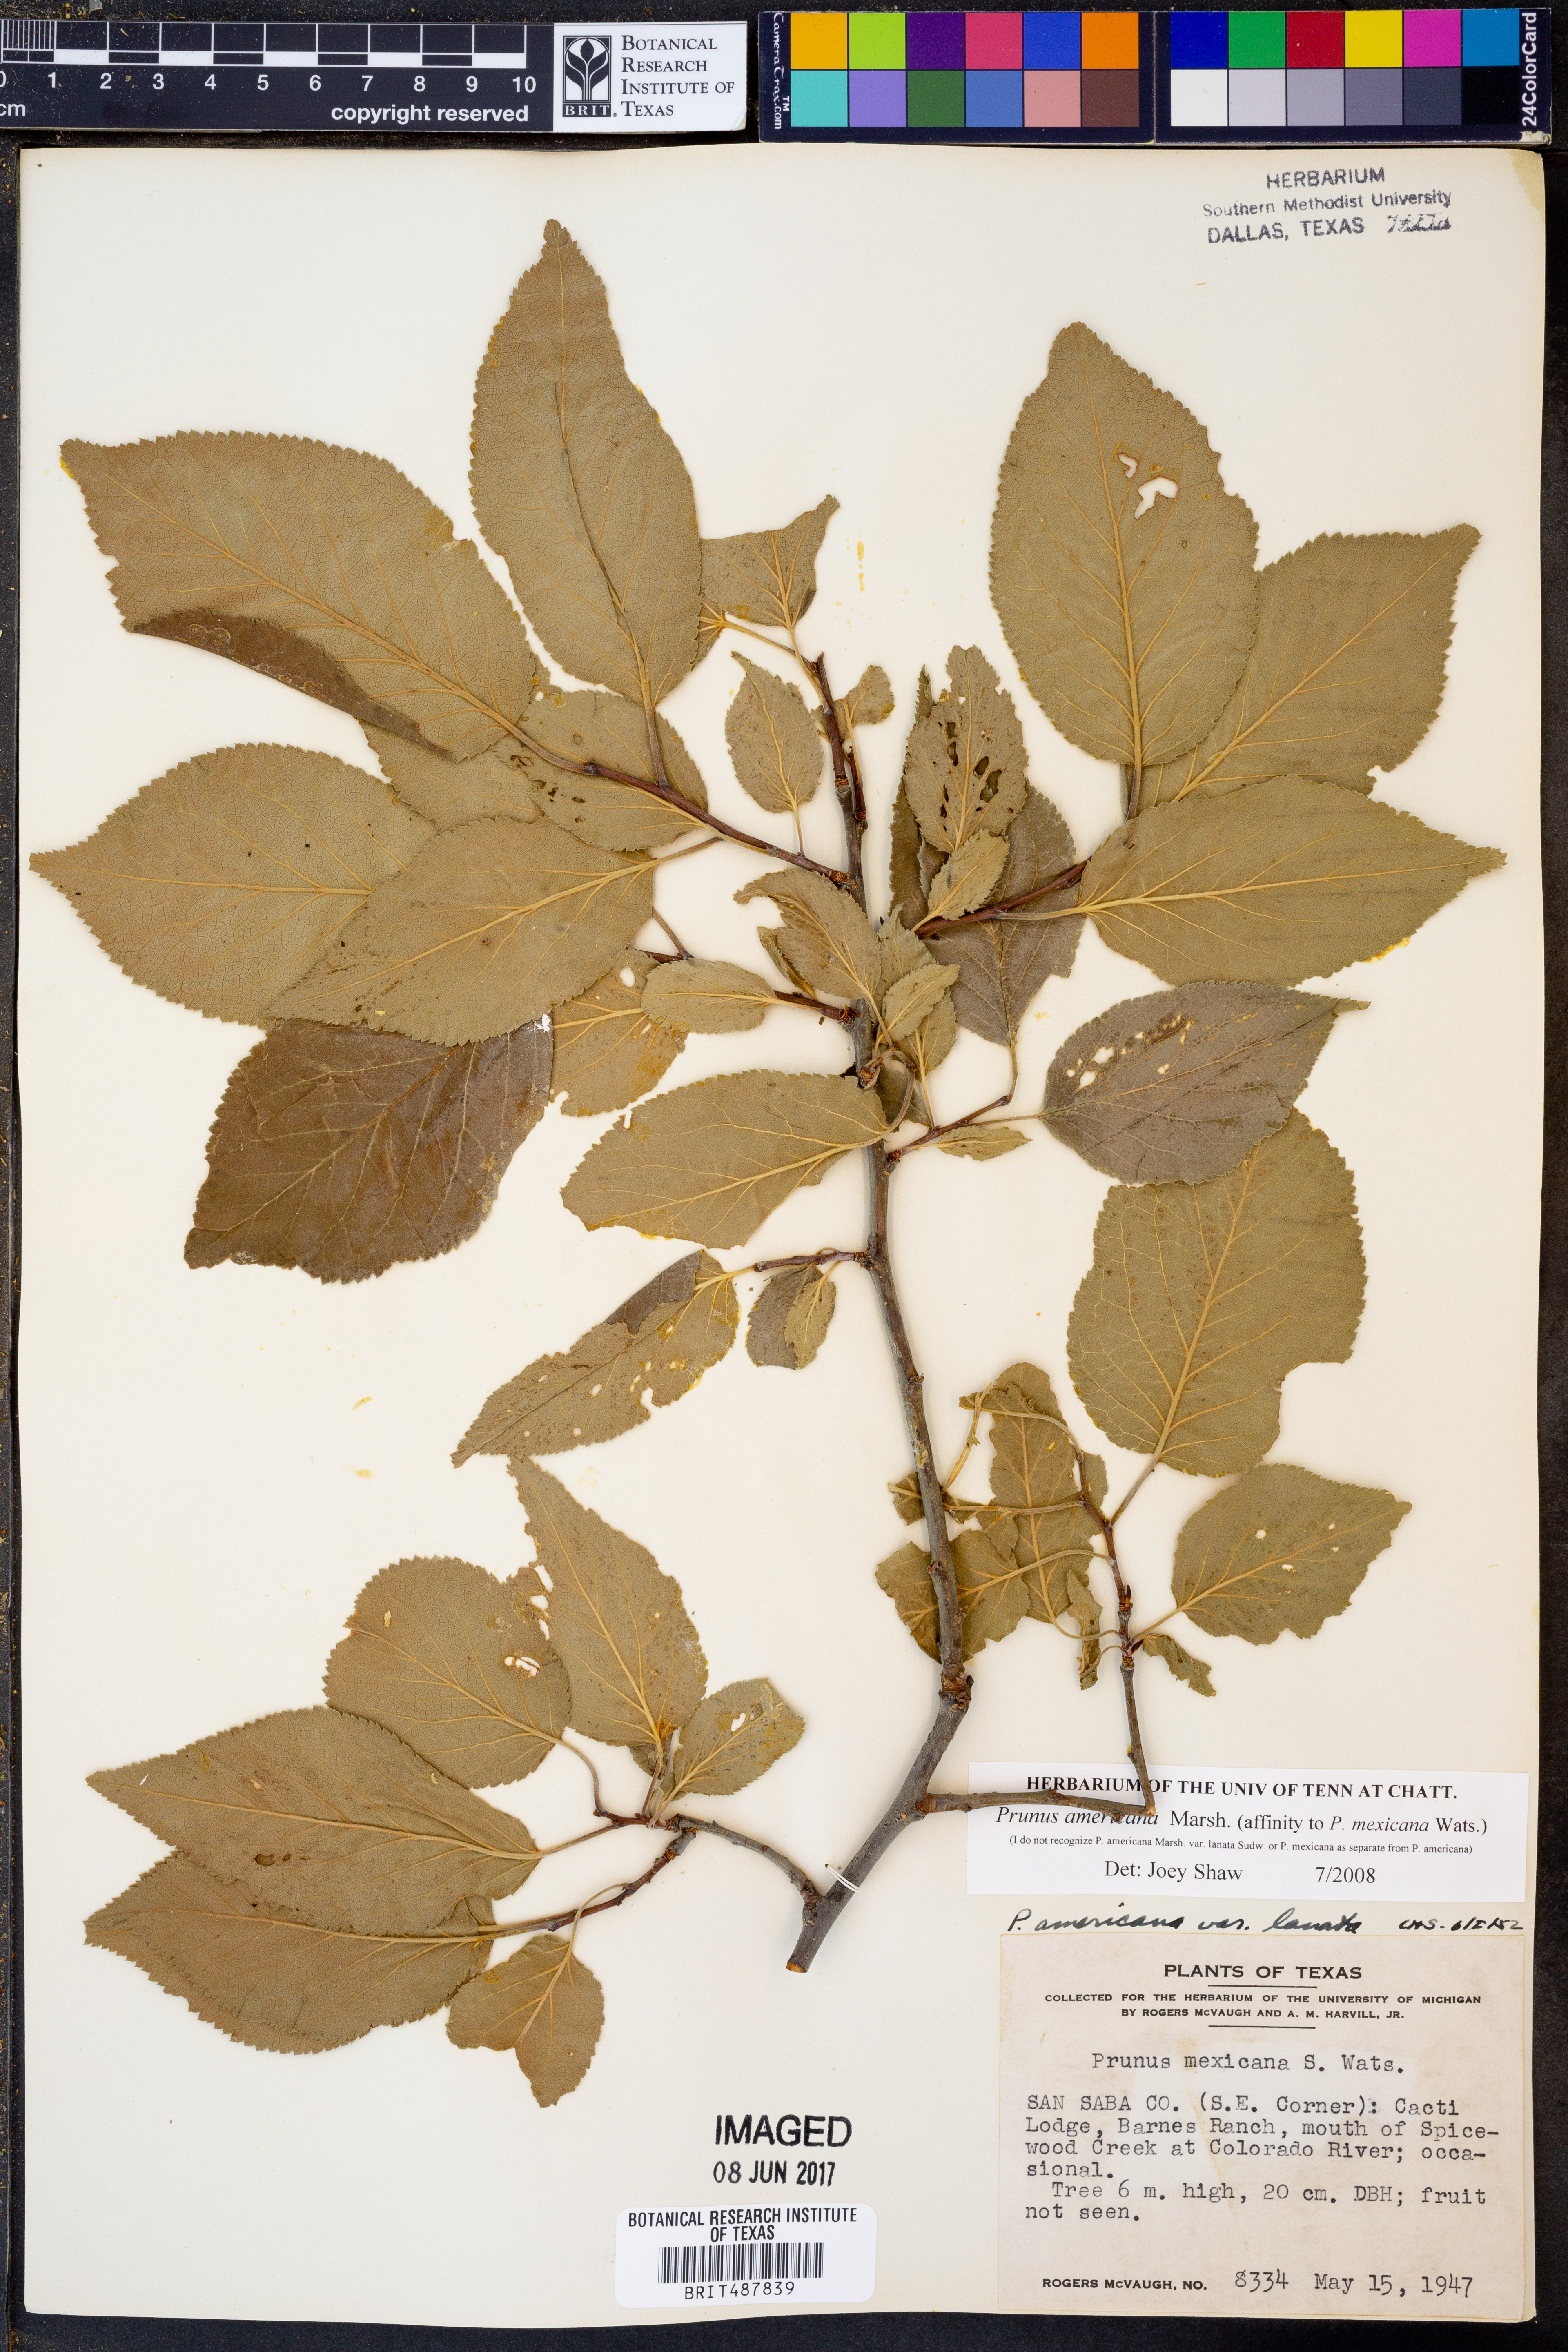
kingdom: Plantae
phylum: Tracheophyta
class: Magnoliopsida
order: Rosales
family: Rosaceae
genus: Prunus
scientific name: Prunus americana
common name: American plum
